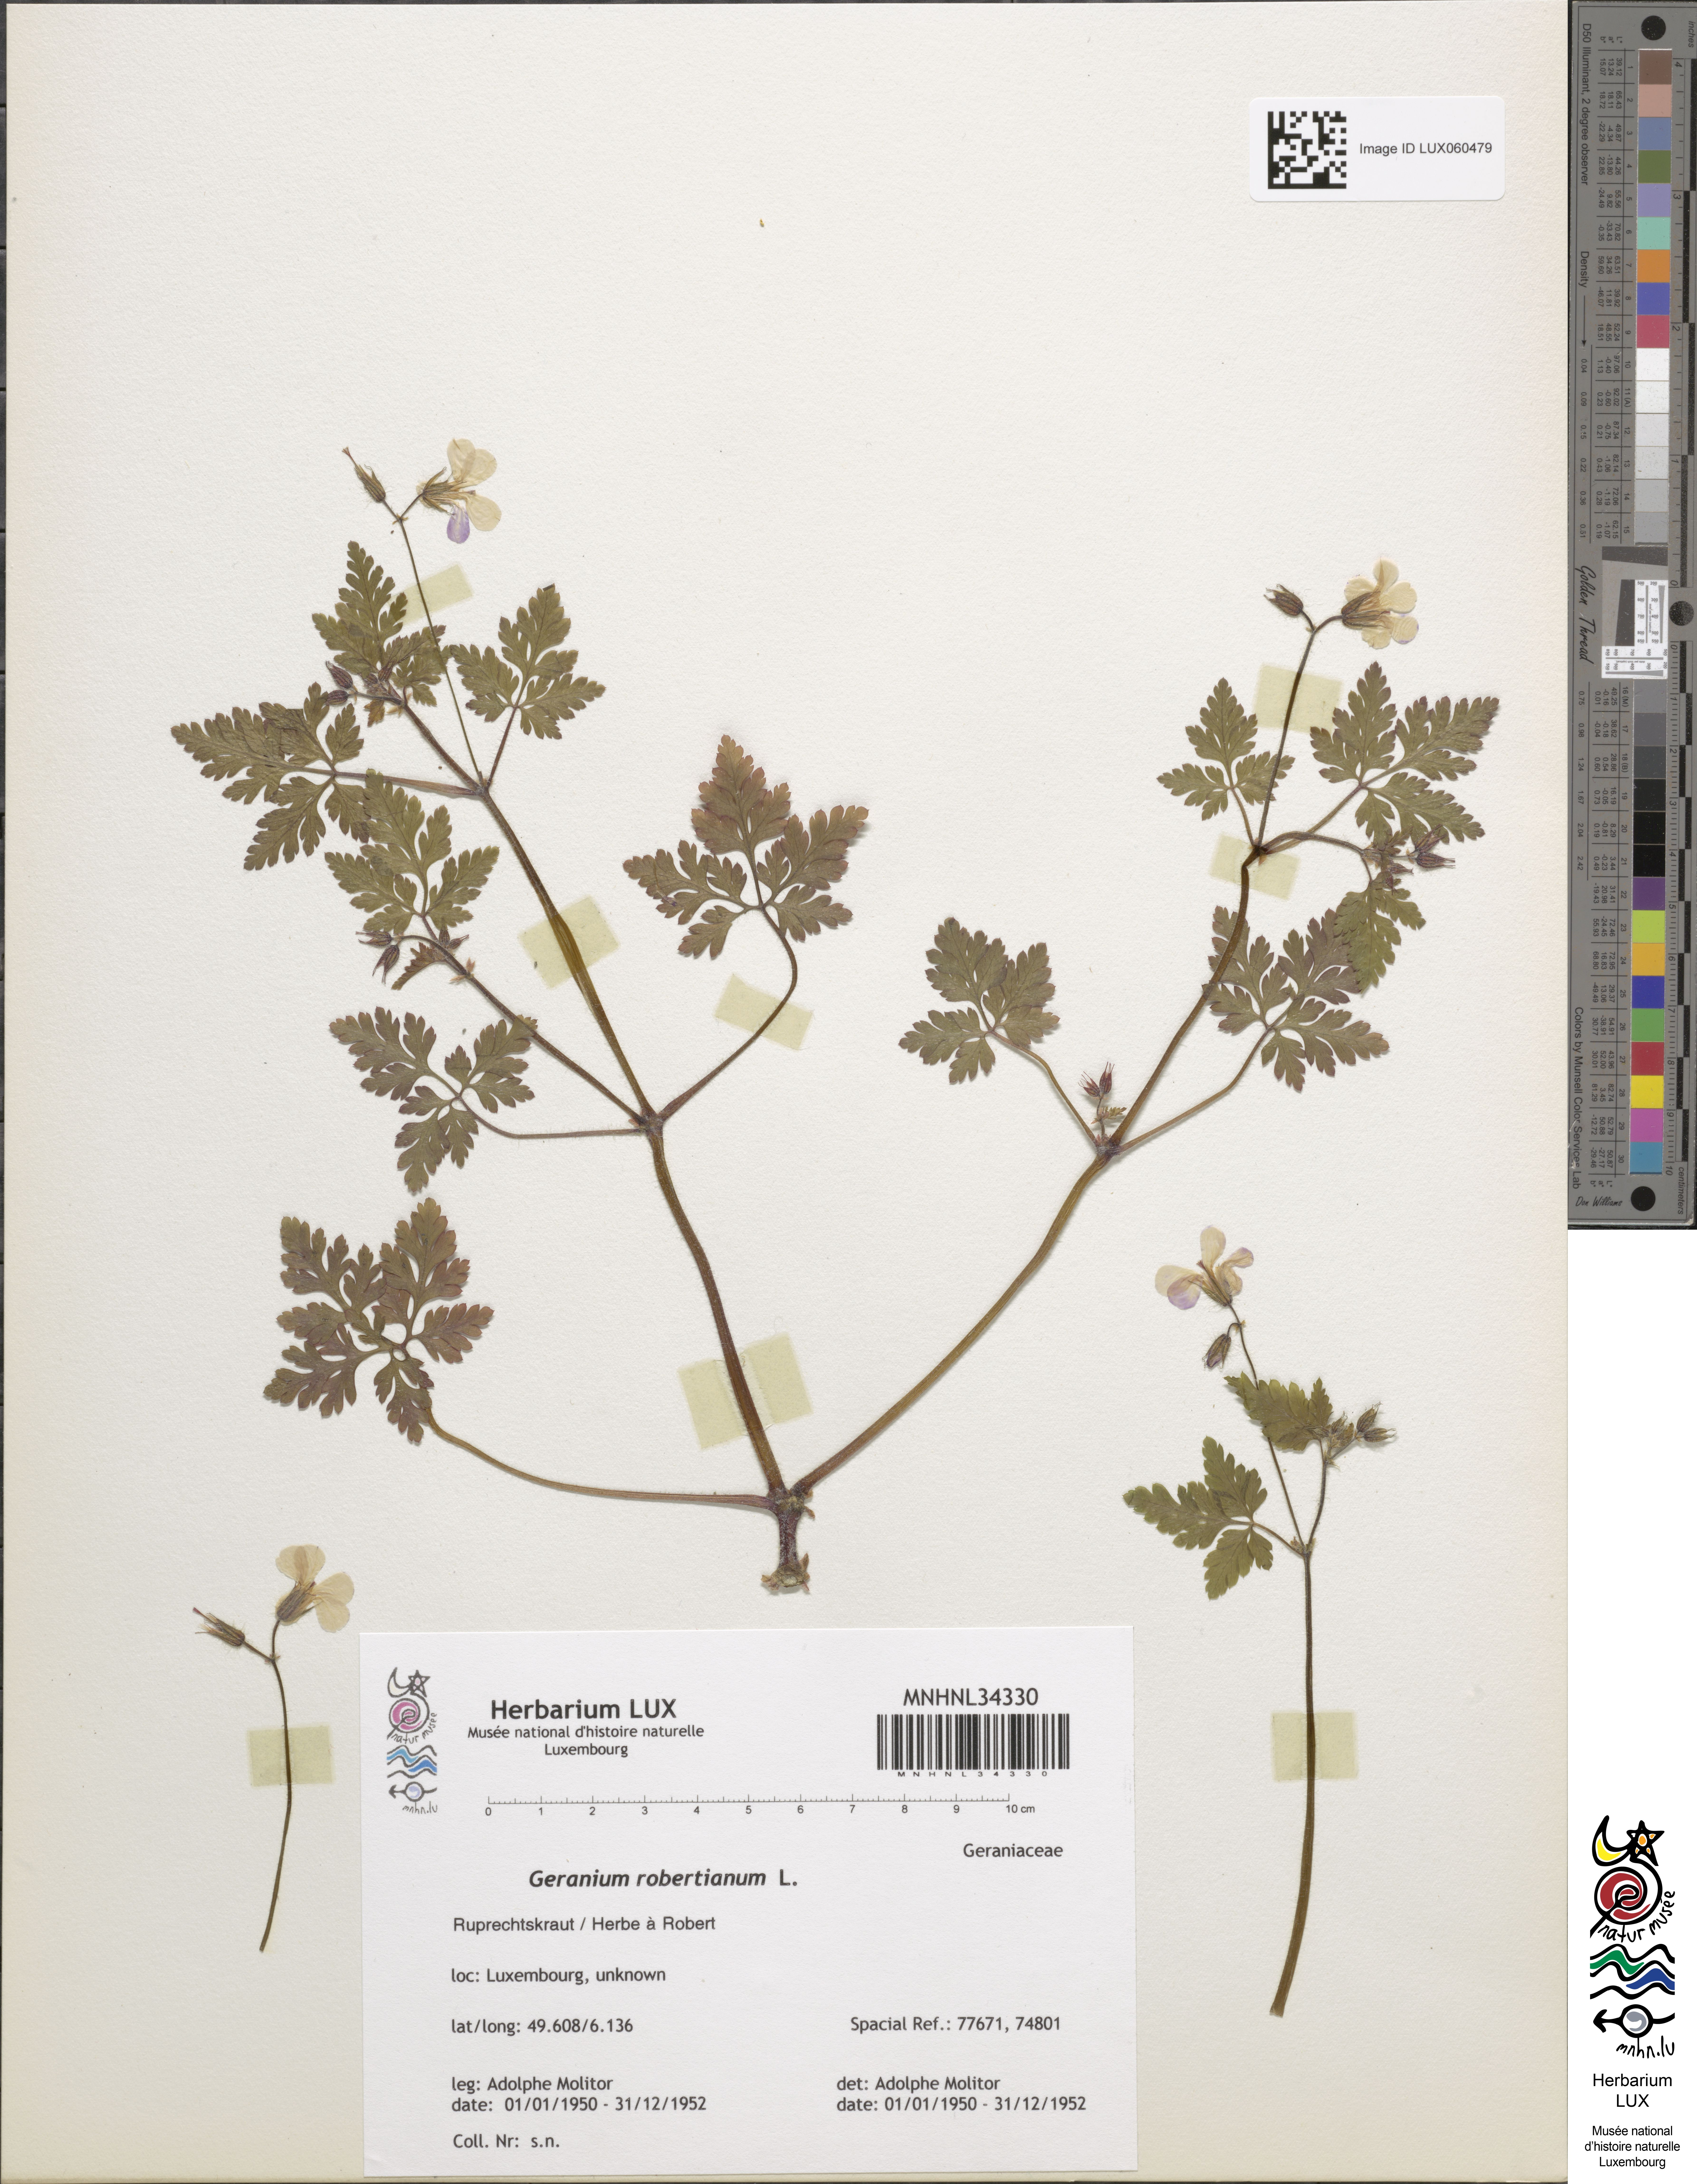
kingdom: Plantae
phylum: Tracheophyta
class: Magnoliopsida
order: Geraniales
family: Geraniaceae
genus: Geranium
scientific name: Geranium robertianum
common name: Herb-robert
